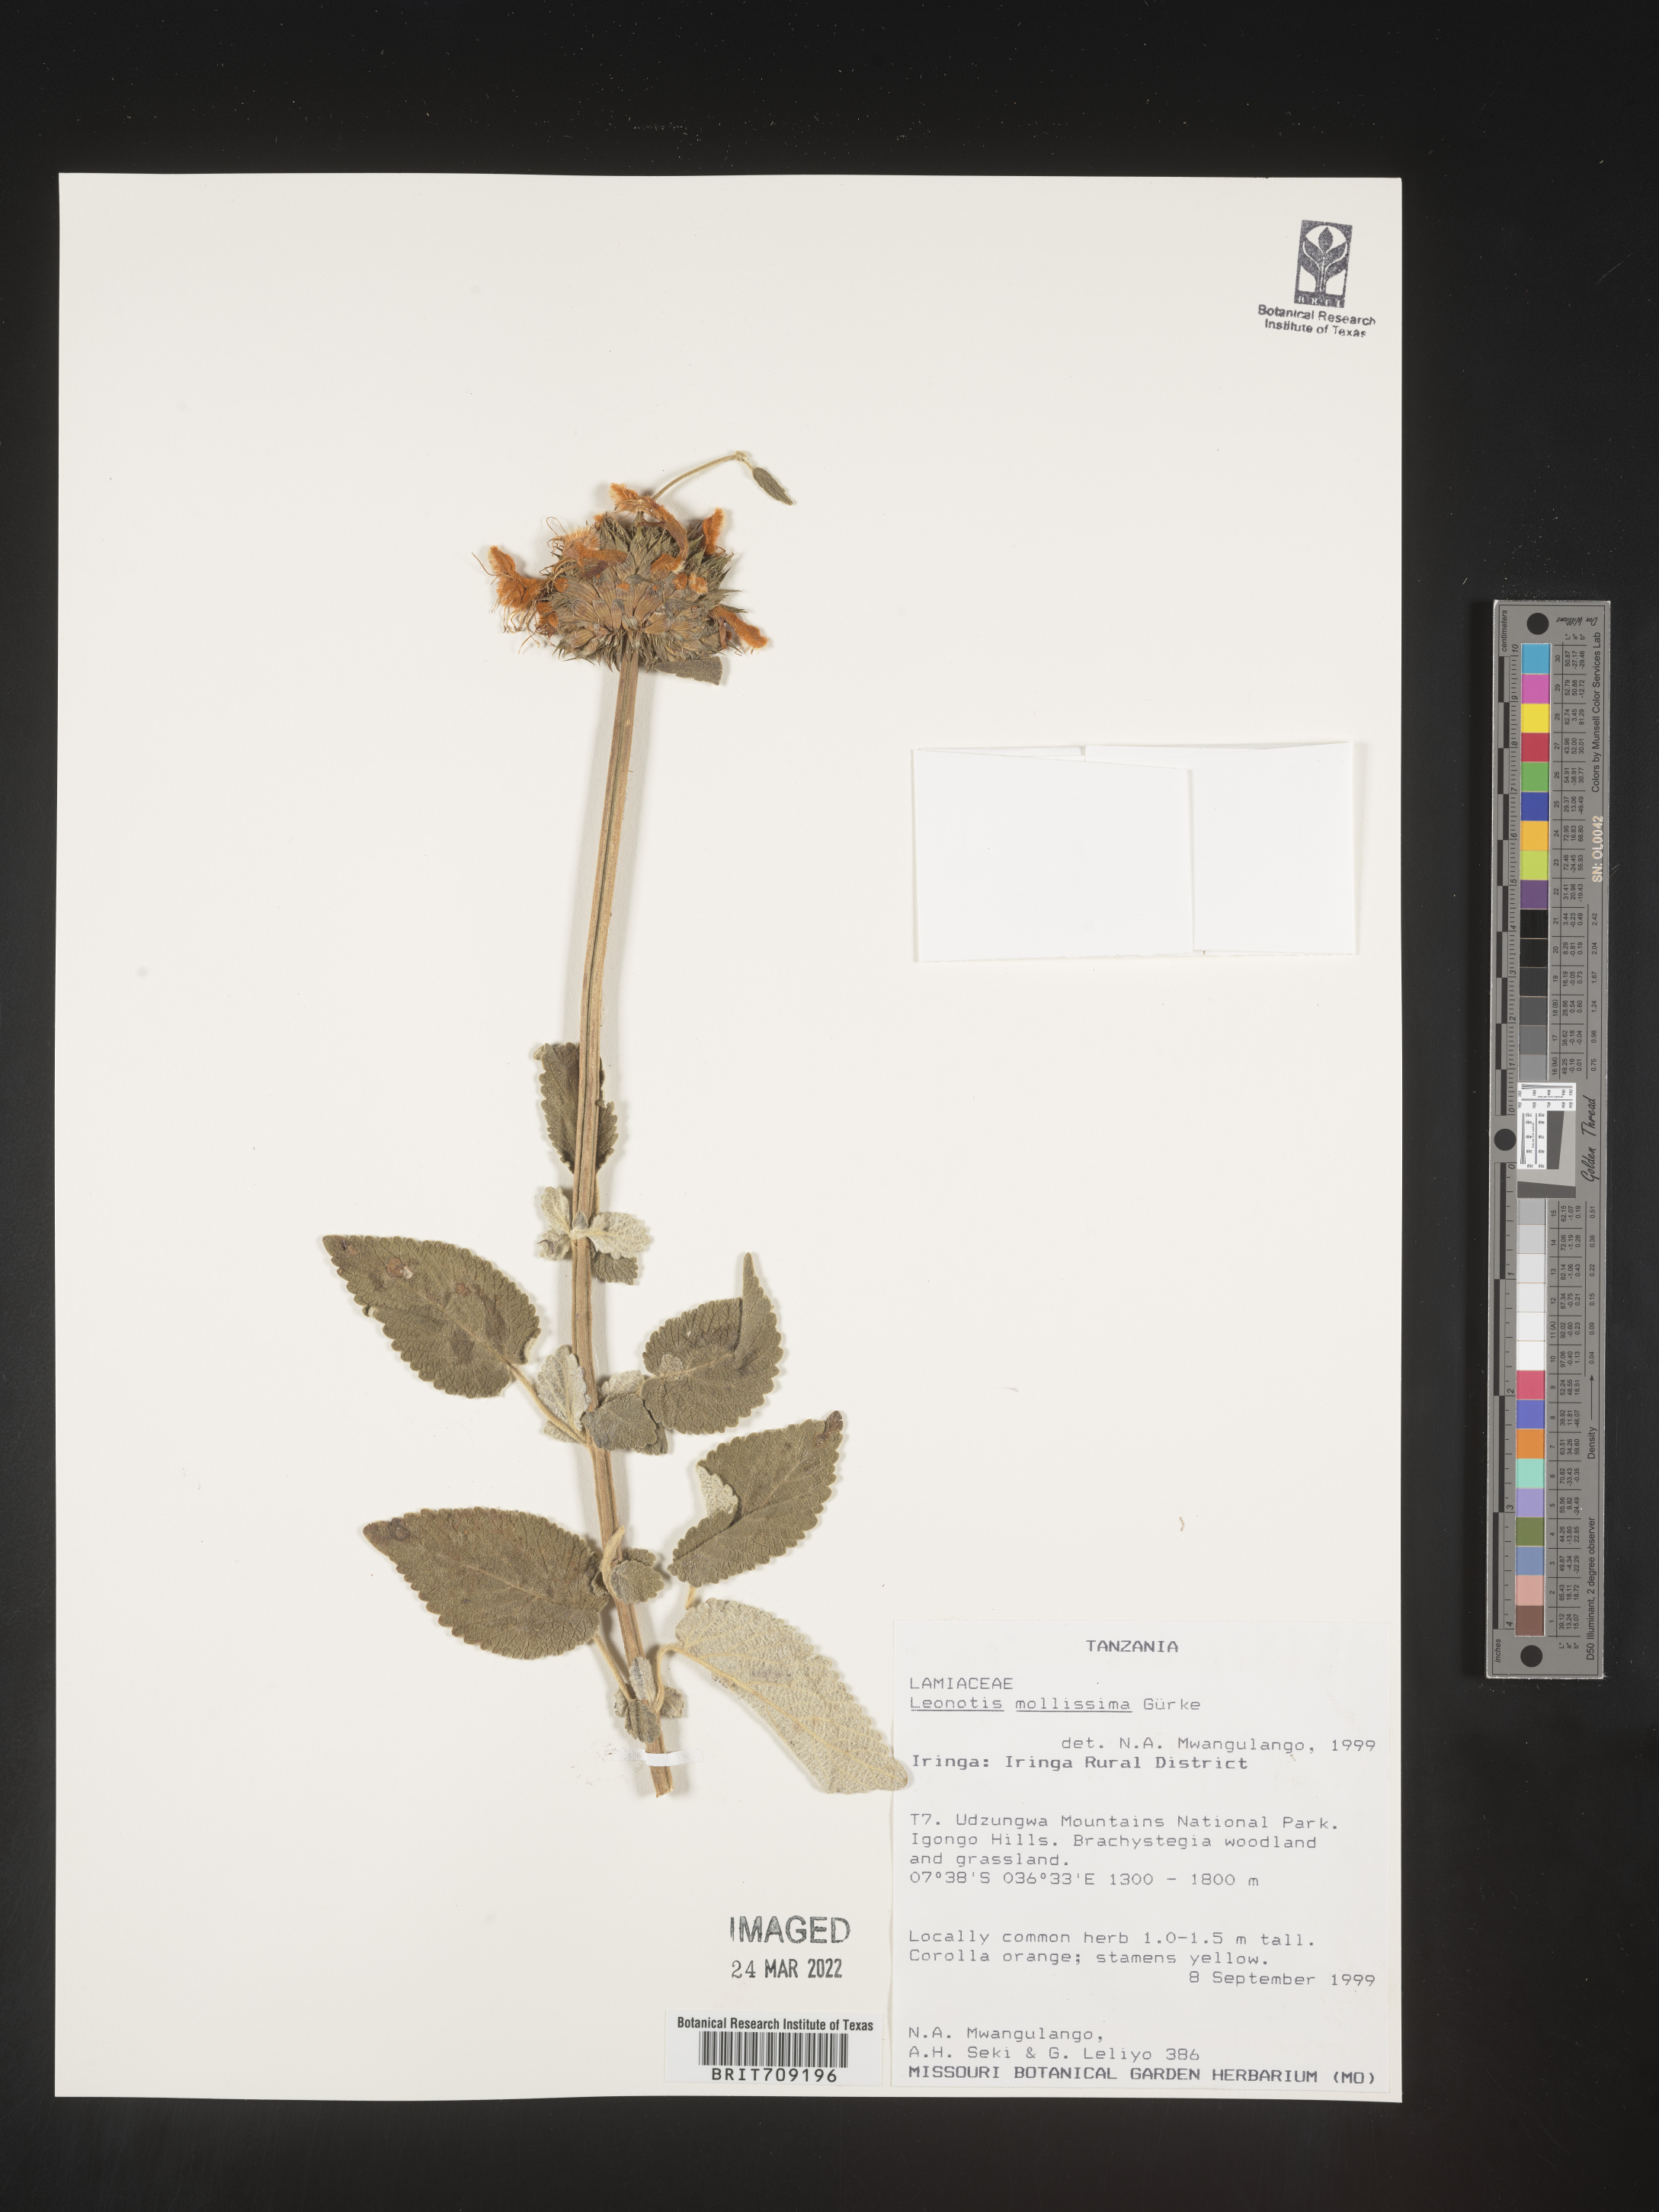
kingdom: Plantae
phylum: Tracheophyta
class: Magnoliopsida
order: Lamiales
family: Lamiaceae
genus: Leonotis
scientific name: Leonotis
